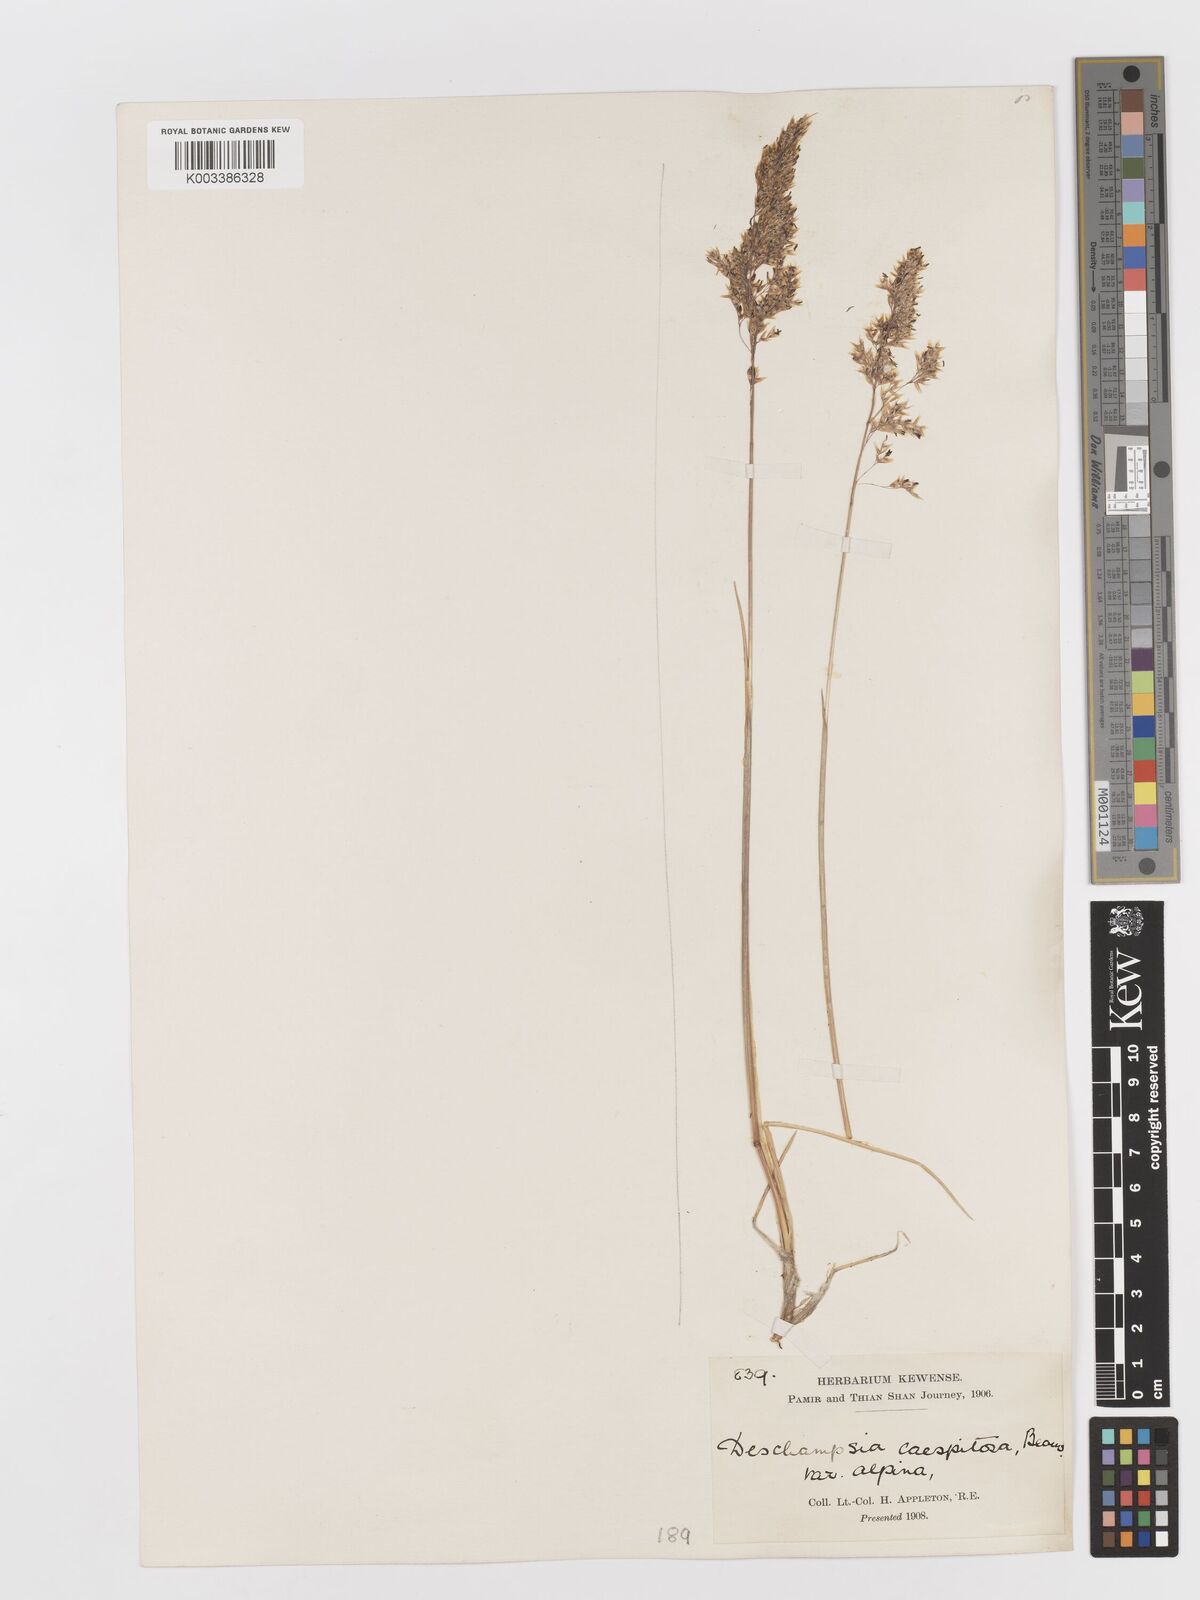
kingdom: Plantae
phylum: Tracheophyta
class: Liliopsida
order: Poales
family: Poaceae
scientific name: Poaceae
